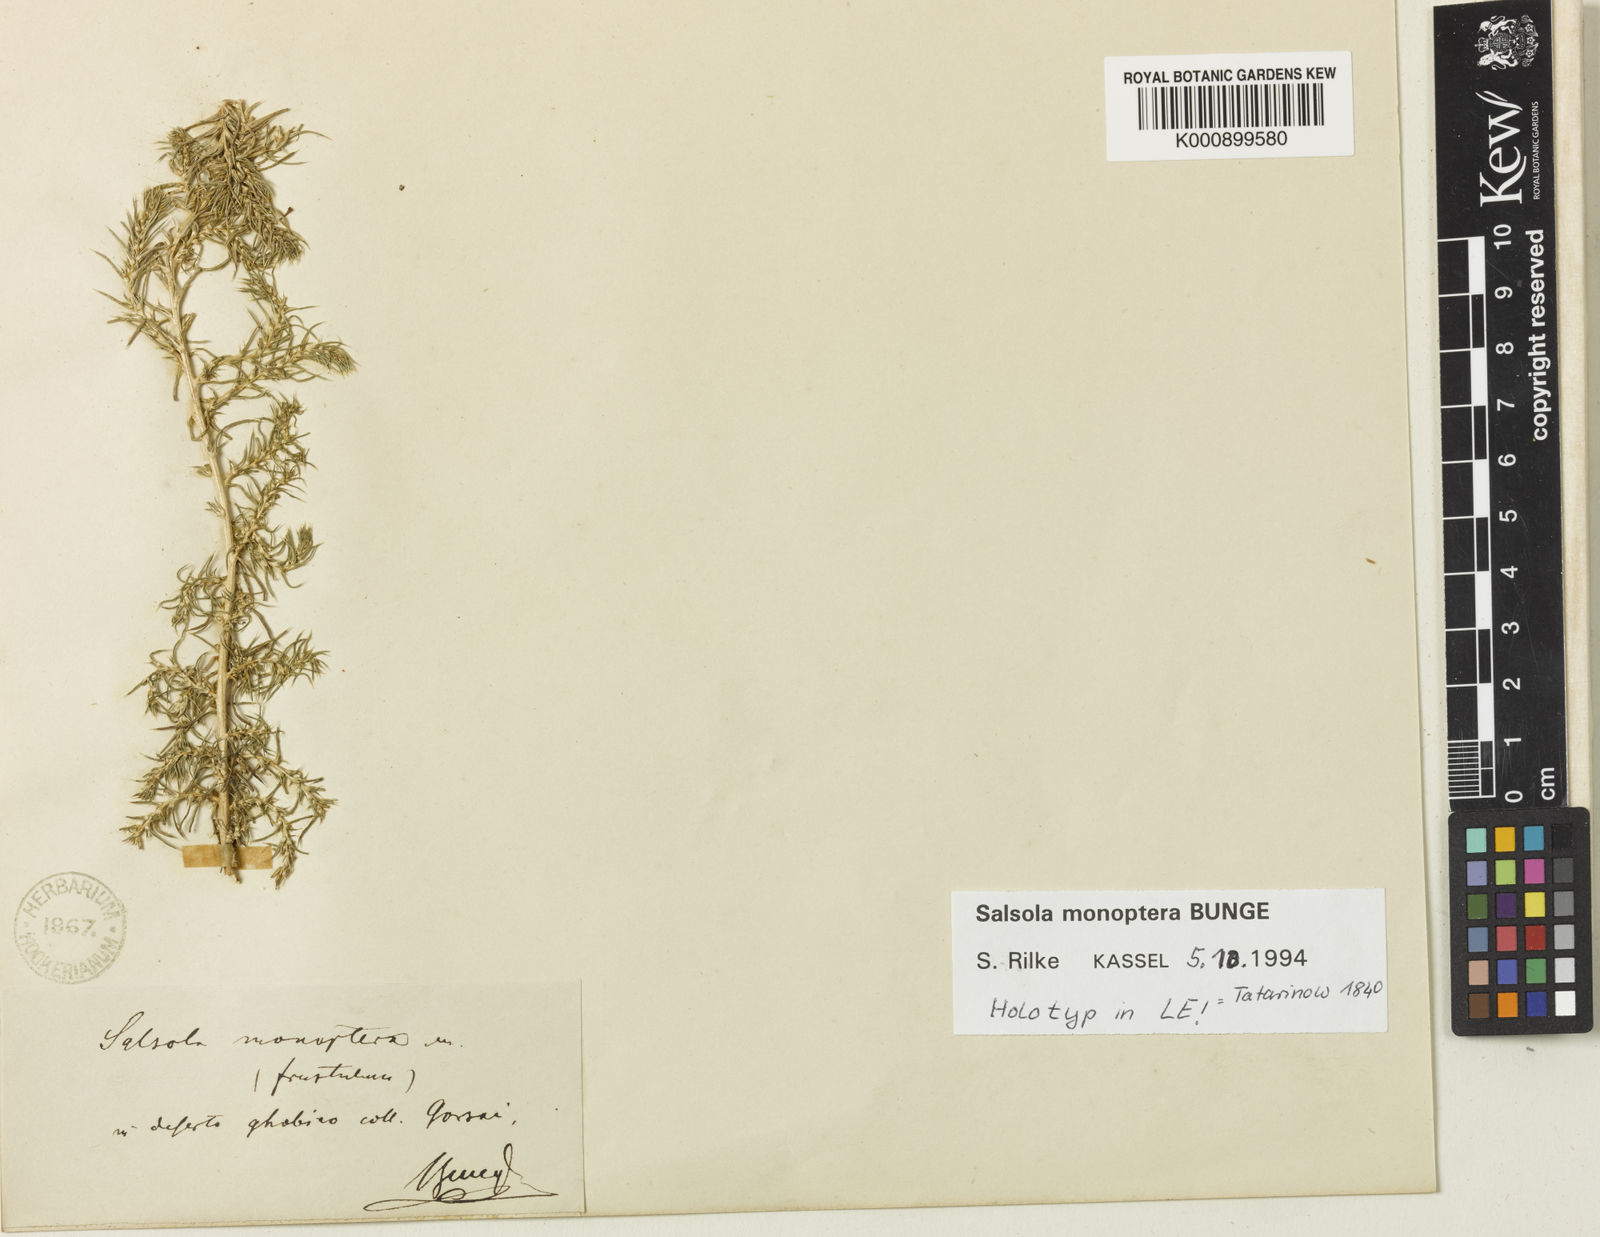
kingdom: Plantae
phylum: Tracheophyta
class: Magnoliopsida
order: Caryophyllales
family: Amaranthaceae
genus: Salsola
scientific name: Salsola monoptera
